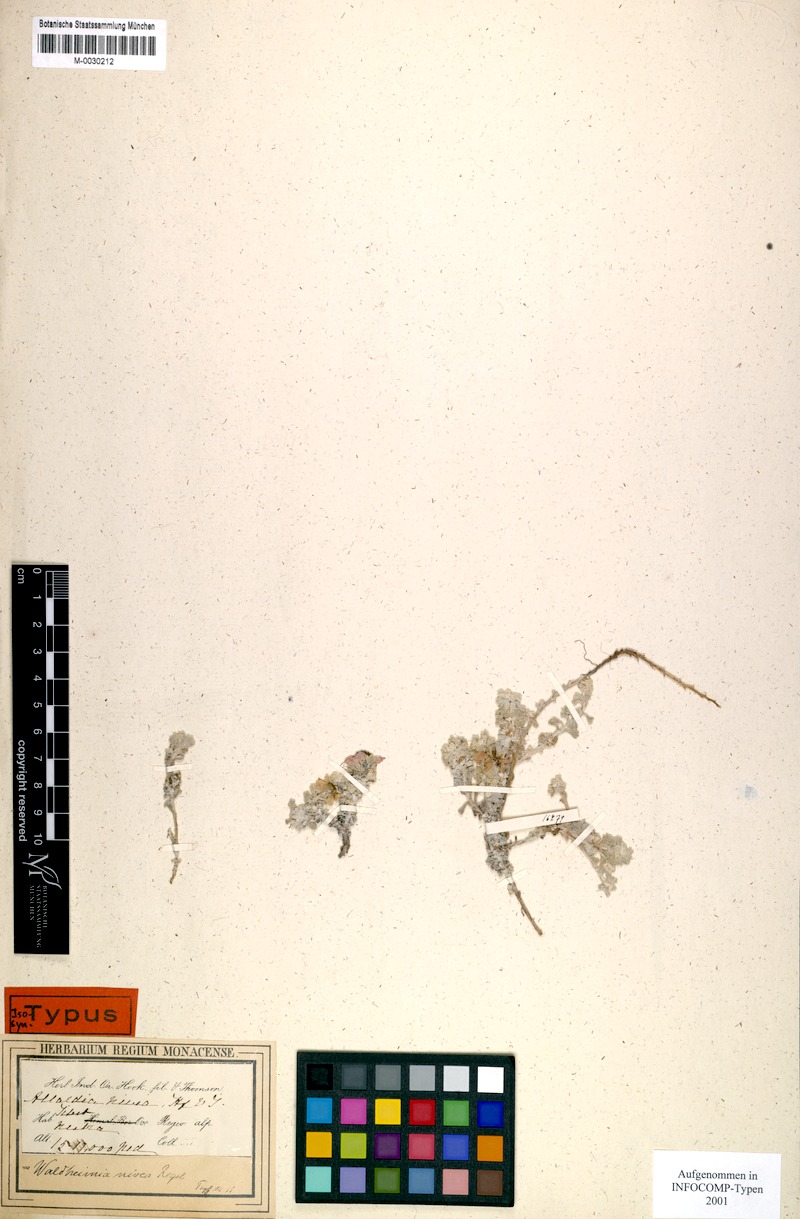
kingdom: Plantae
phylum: Tracheophyta
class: Magnoliopsida
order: Asterales
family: Asteraceae
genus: Allardia
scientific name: Allardia nivea
